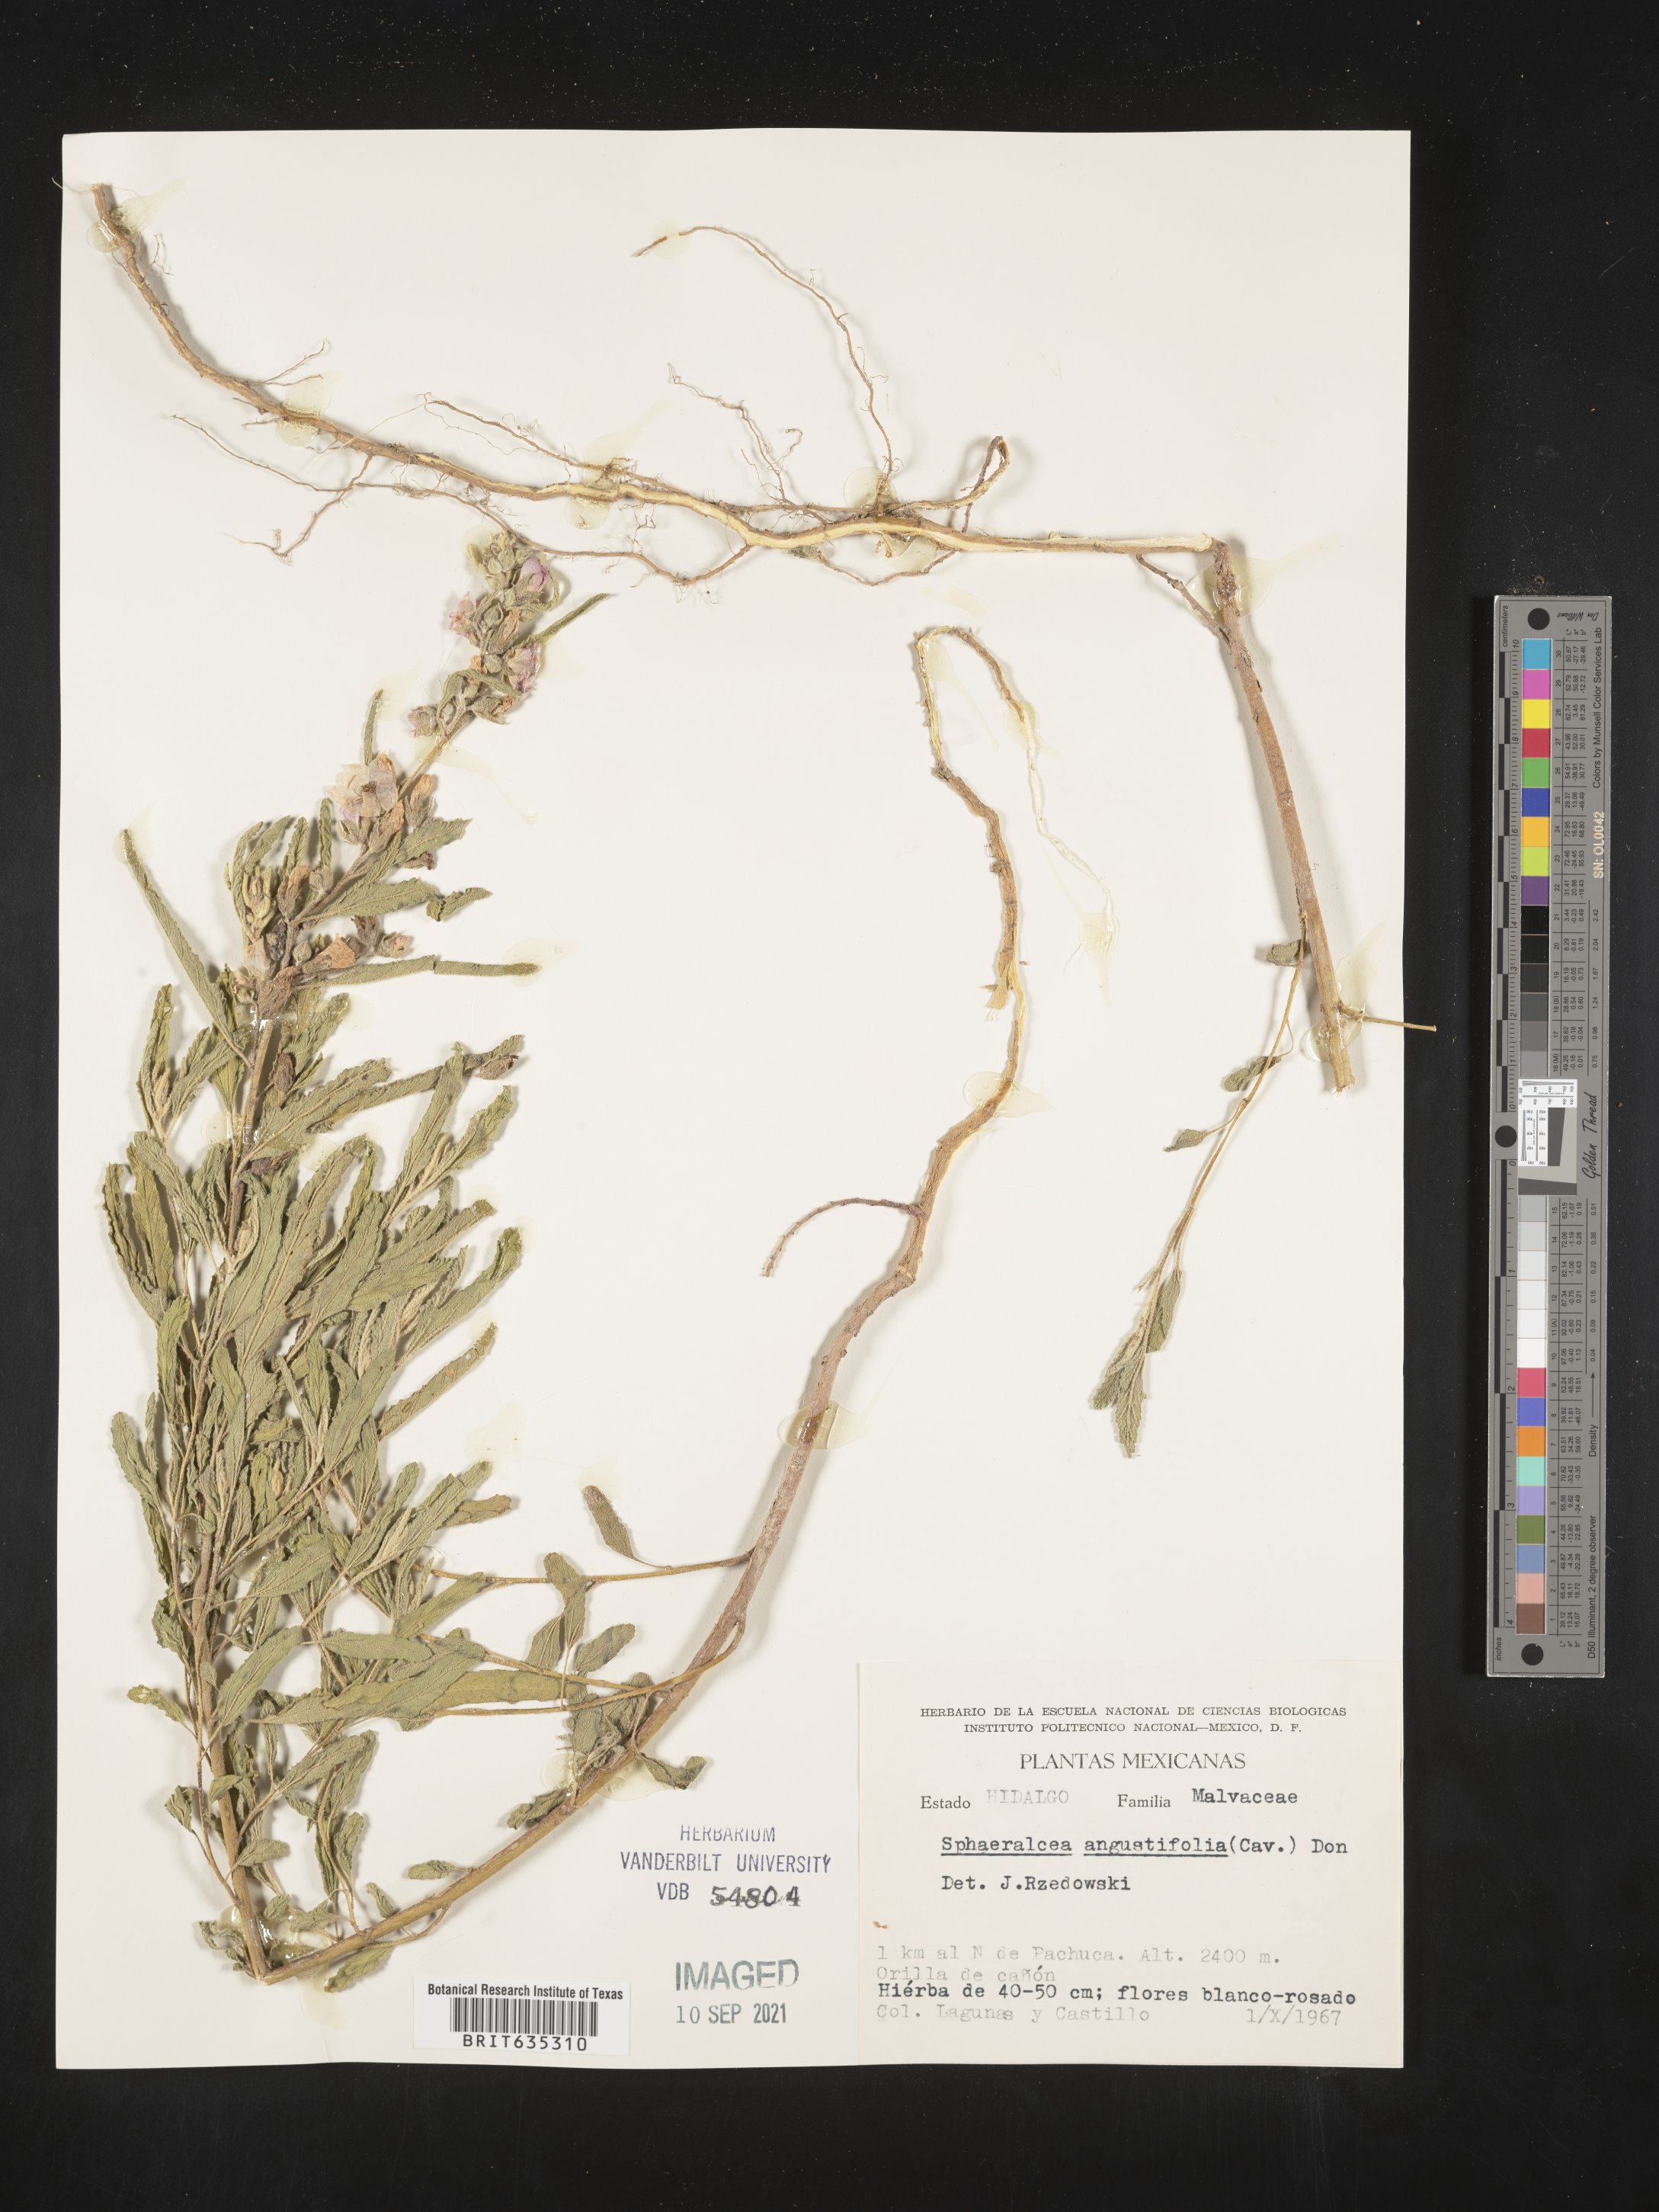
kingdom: Plantae
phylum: Tracheophyta
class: Magnoliopsida
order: Malvales
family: Malvaceae
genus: Sphaeralcea
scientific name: Sphaeralcea
